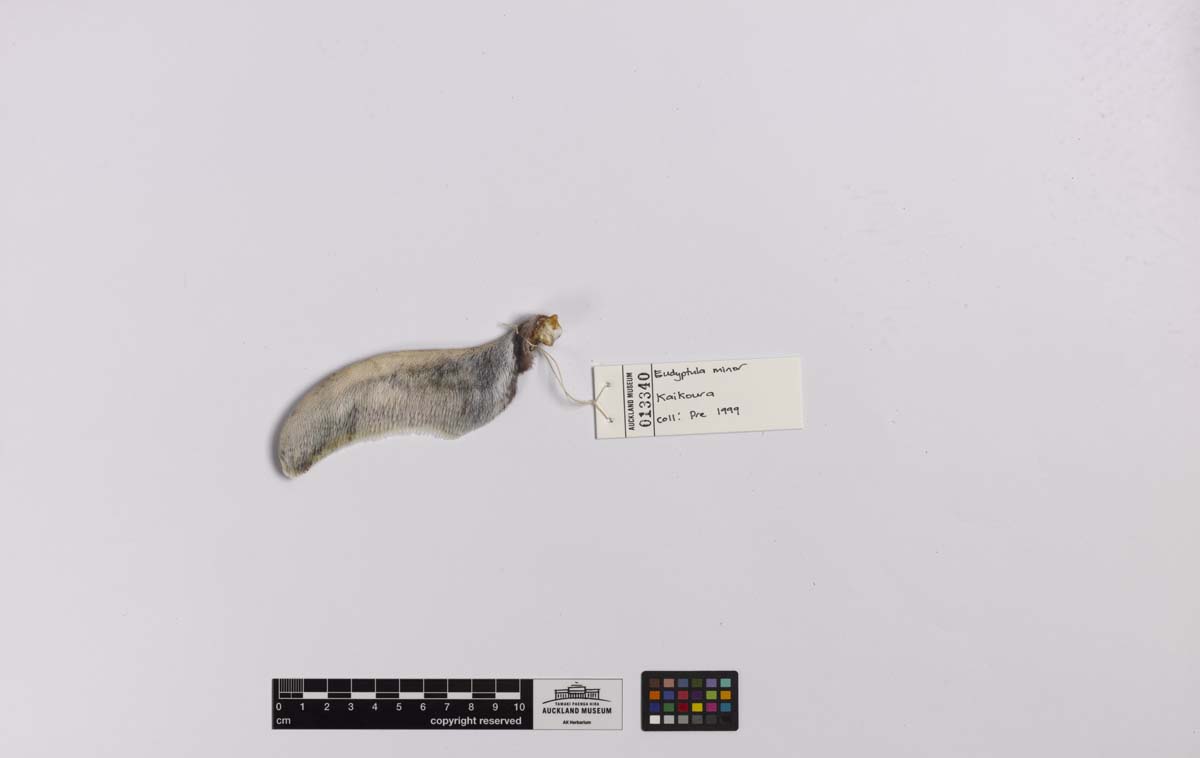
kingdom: Animalia
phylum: Chordata
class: Aves
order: Sphenisciformes
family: Spheniscidae
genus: Eudyptula
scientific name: Eudyptula minor
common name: Little penguin
